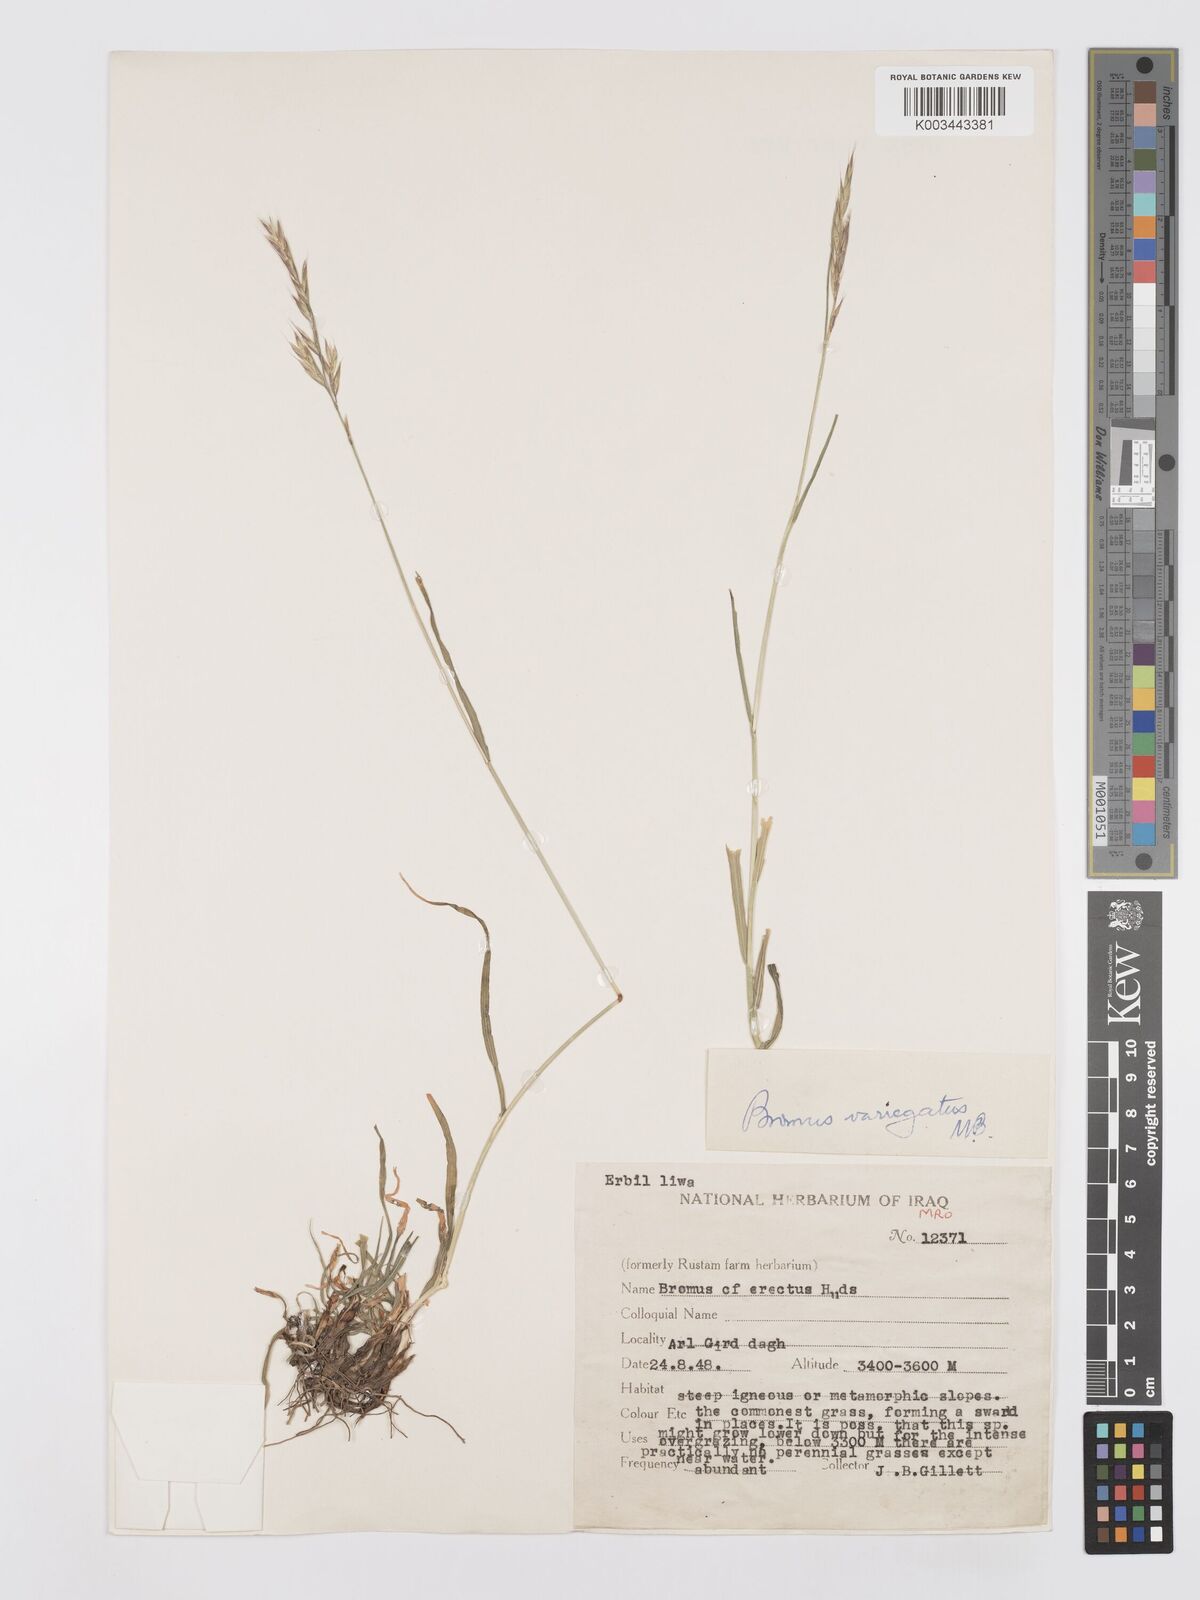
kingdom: Plantae
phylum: Tracheophyta
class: Liliopsida
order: Poales
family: Poaceae
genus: Bromus
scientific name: Bromus variegatus
